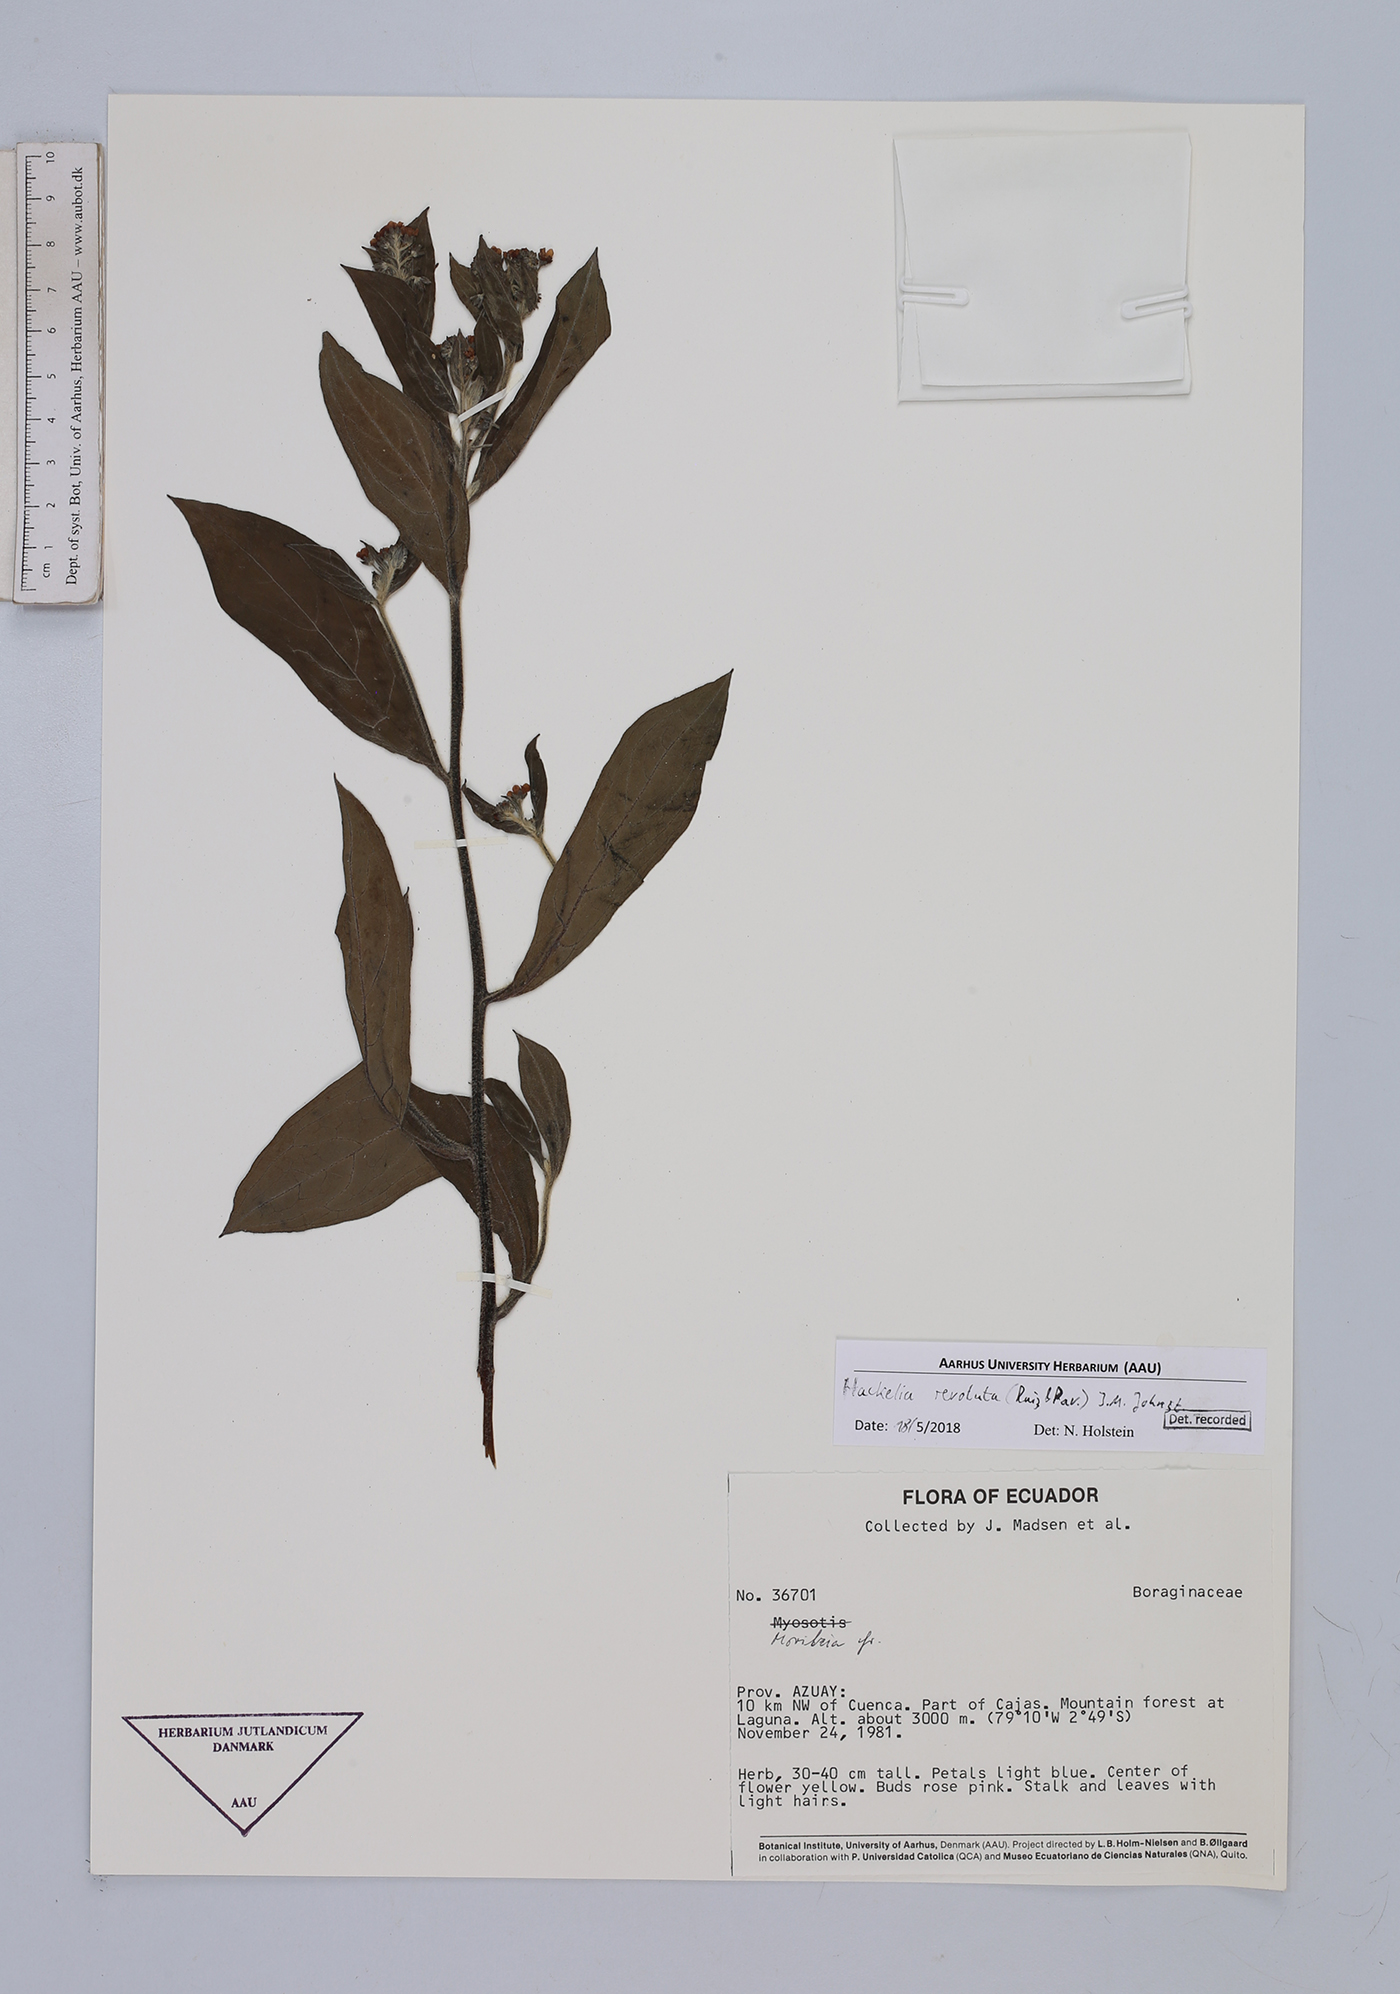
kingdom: Plantae
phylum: Tracheophyta
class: Magnoliopsida
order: Boraginales
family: Boraginaceae
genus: Hackelia
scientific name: Hackelia revoluta
